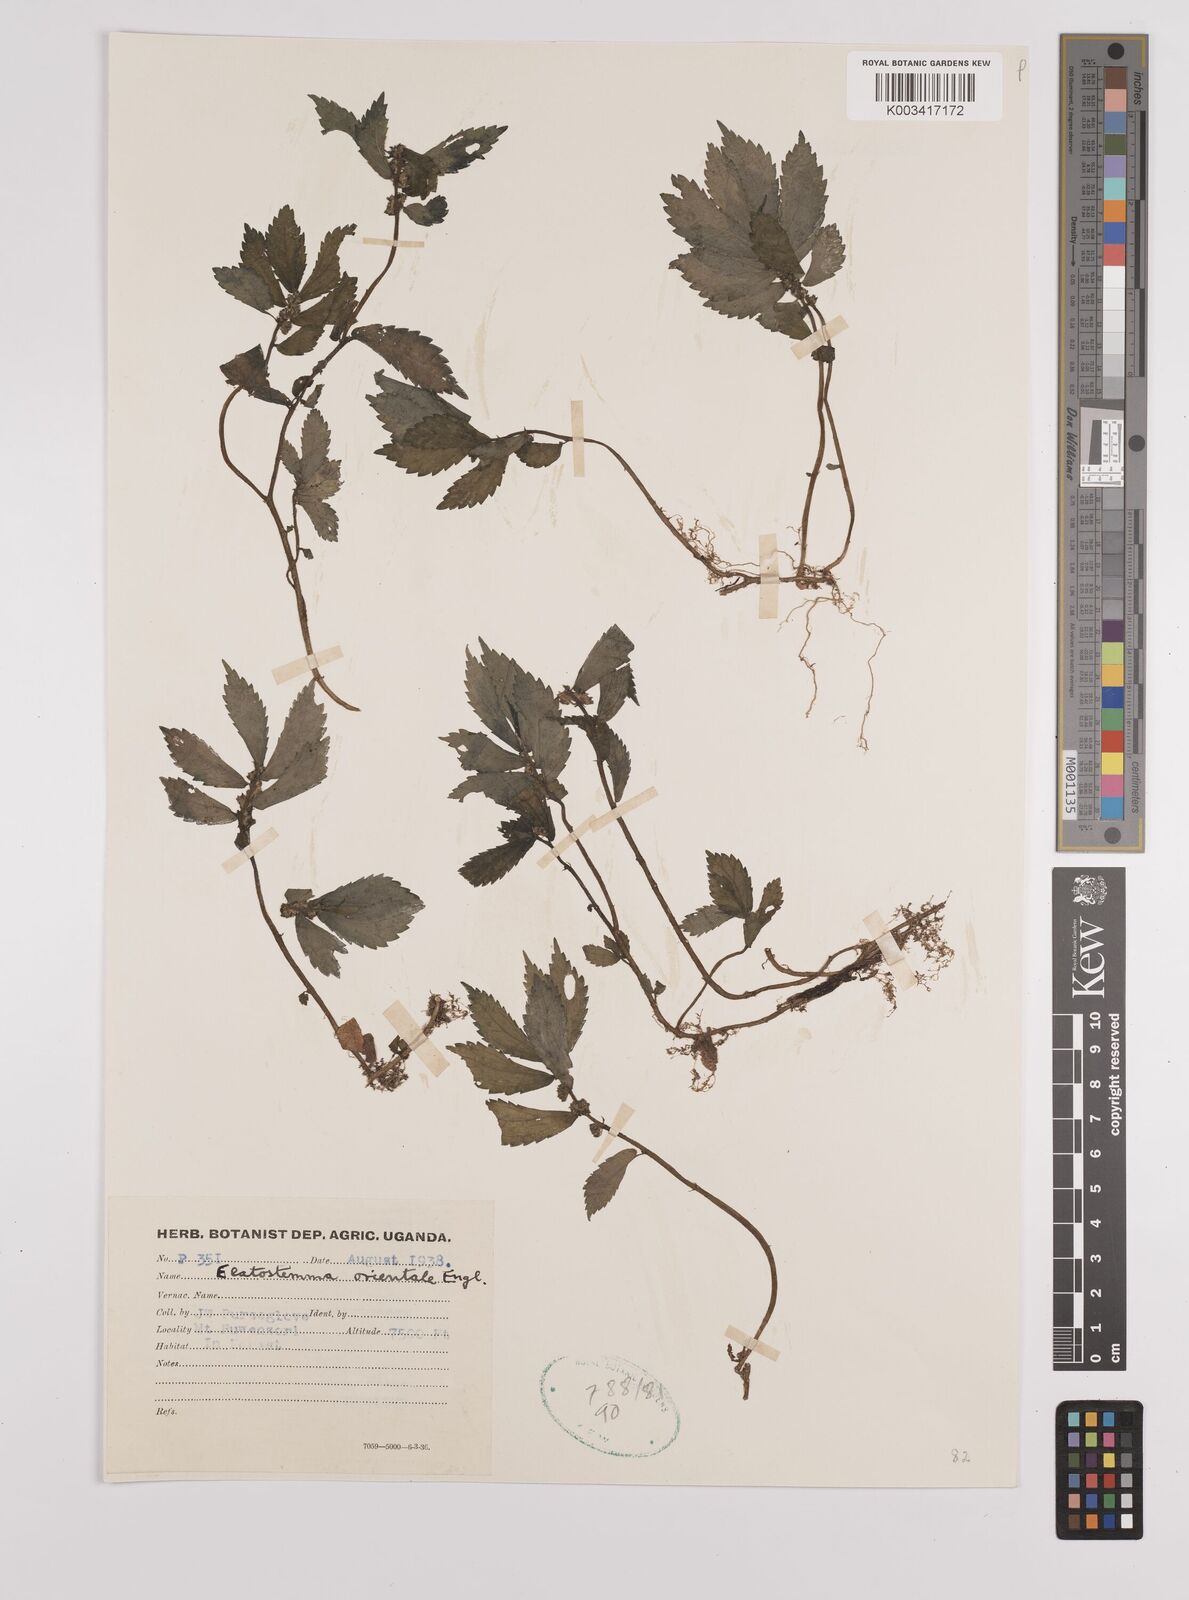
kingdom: Plantae
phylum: Tracheophyta
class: Magnoliopsida
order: Rosales
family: Urticaceae
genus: Elatostema
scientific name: Elatostema monticola
